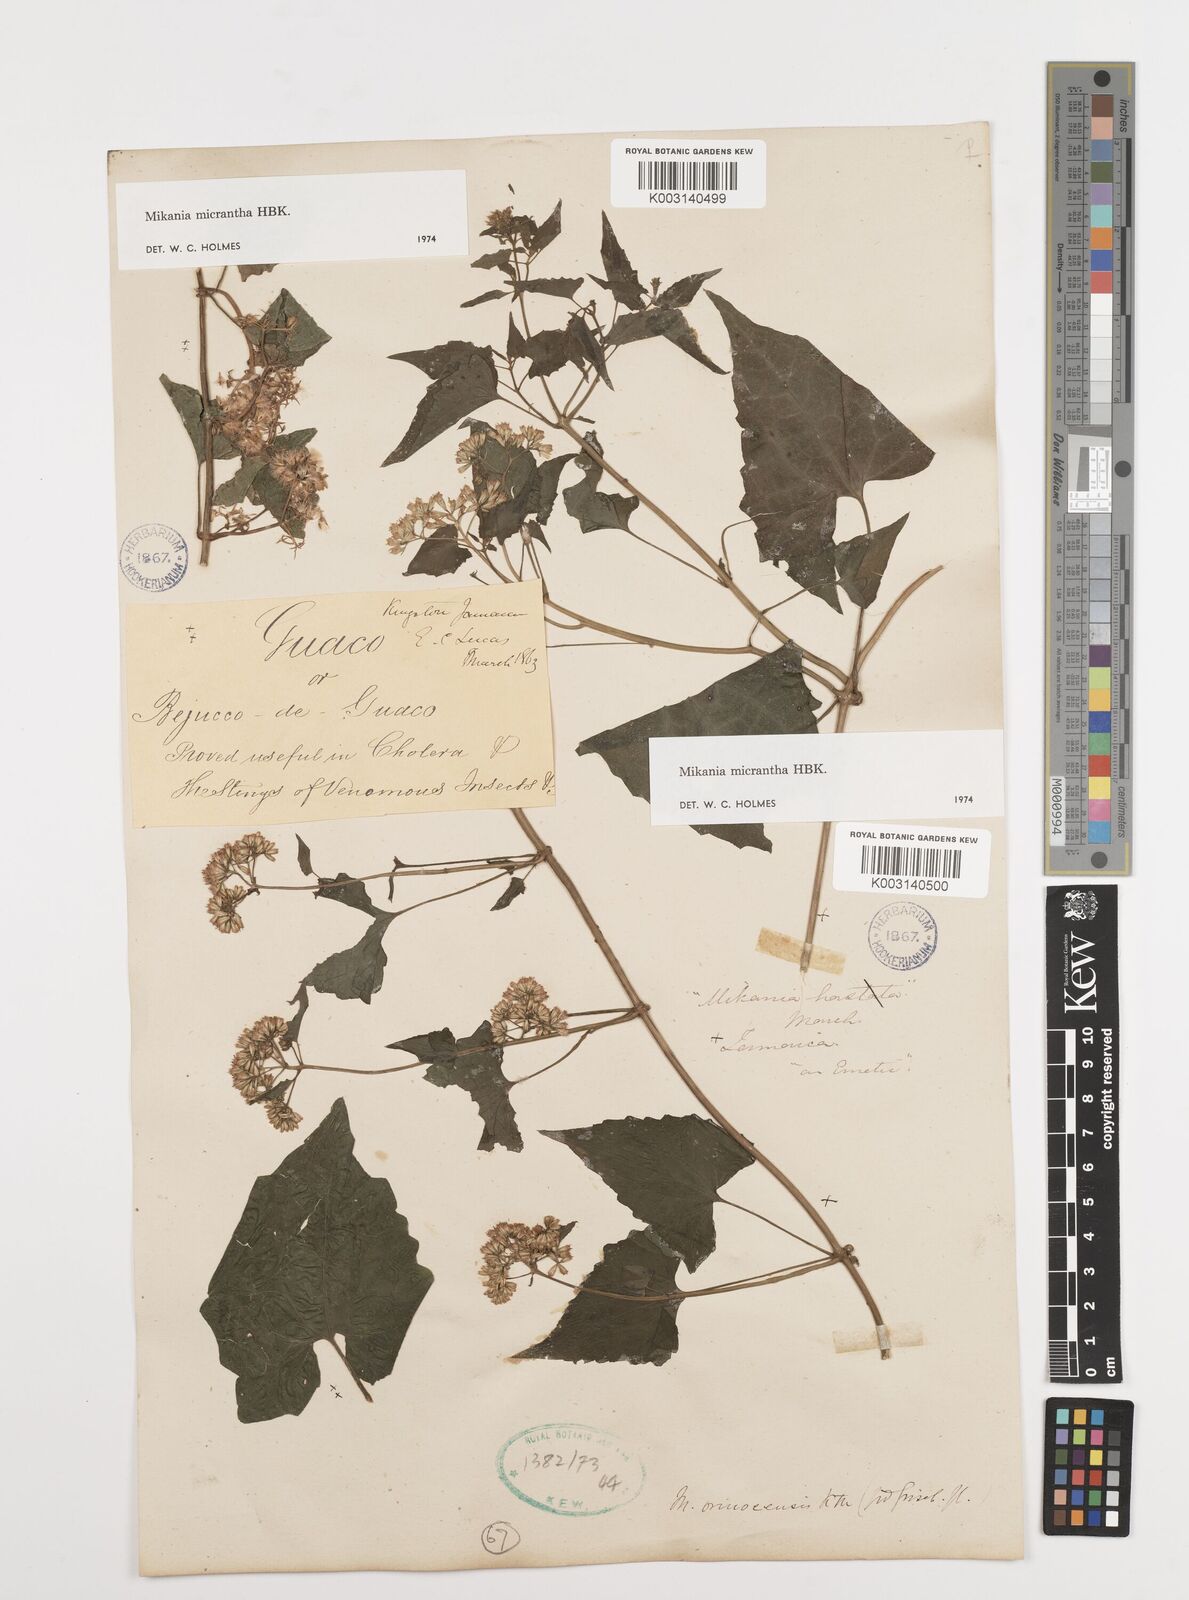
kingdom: Plantae
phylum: Tracheophyta
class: Magnoliopsida
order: Asterales
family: Asteraceae
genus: Mikania
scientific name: Mikania micrantha
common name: Mile-a-minute
